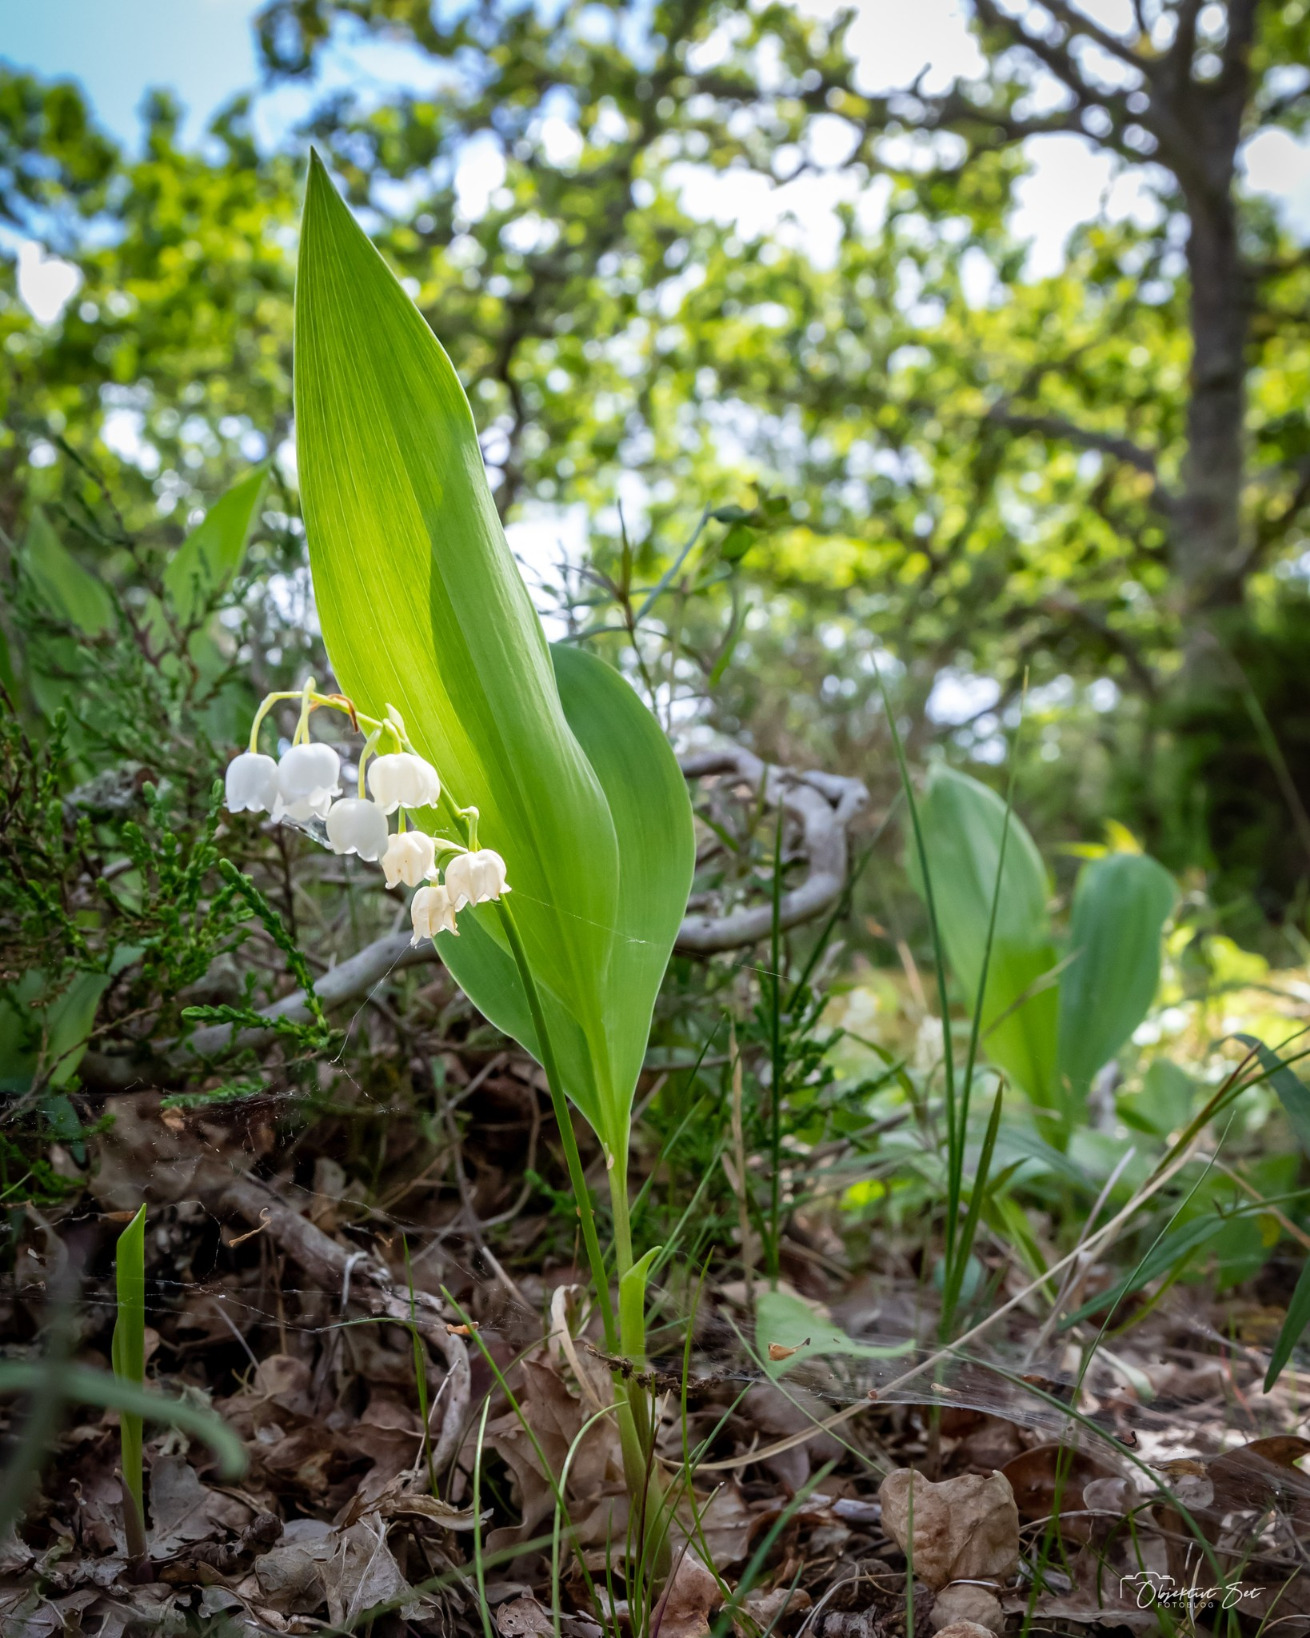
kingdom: Plantae
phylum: Tracheophyta
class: Liliopsida
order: Asparagales
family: Asparagaceae
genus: Convallaria
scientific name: Convallaria majalis
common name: Liljekonval
